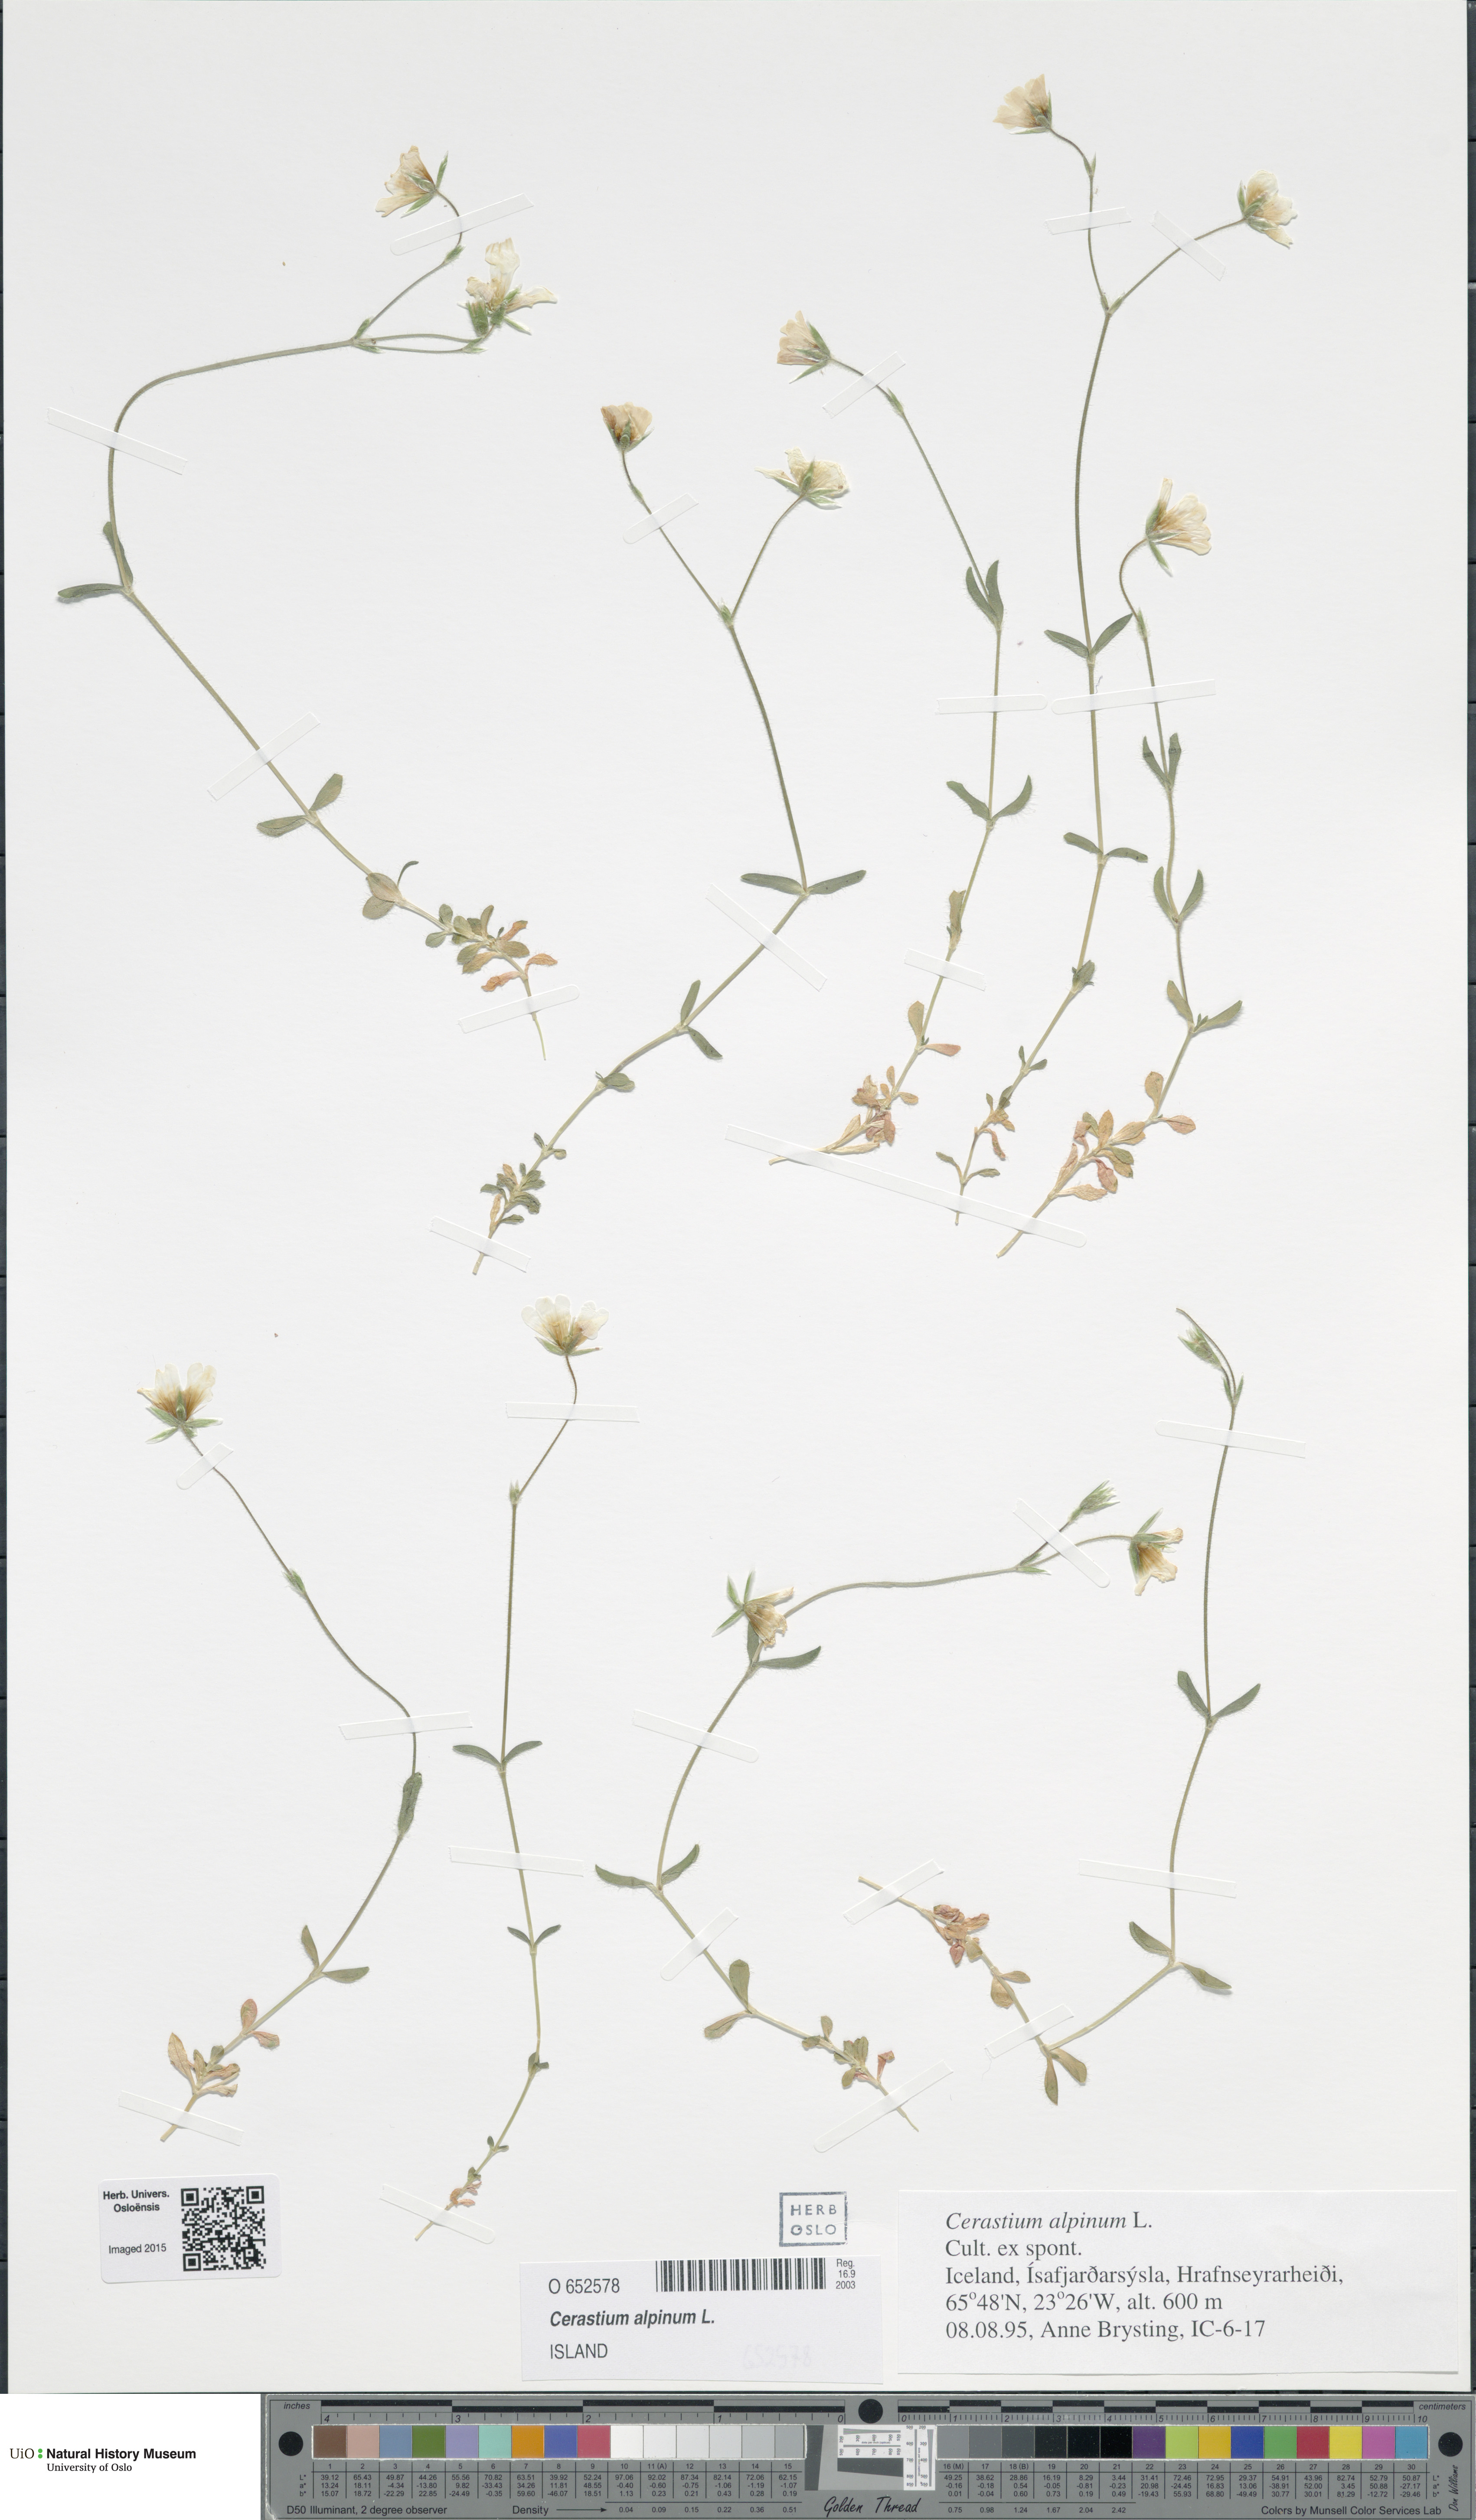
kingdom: Plantae
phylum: Tracheophyta
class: Magnoliopsida
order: Caryophyllales
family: Caryophyllaceae
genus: Cerastium
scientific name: Cerastium alpinum
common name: Alpine mouse-ear
